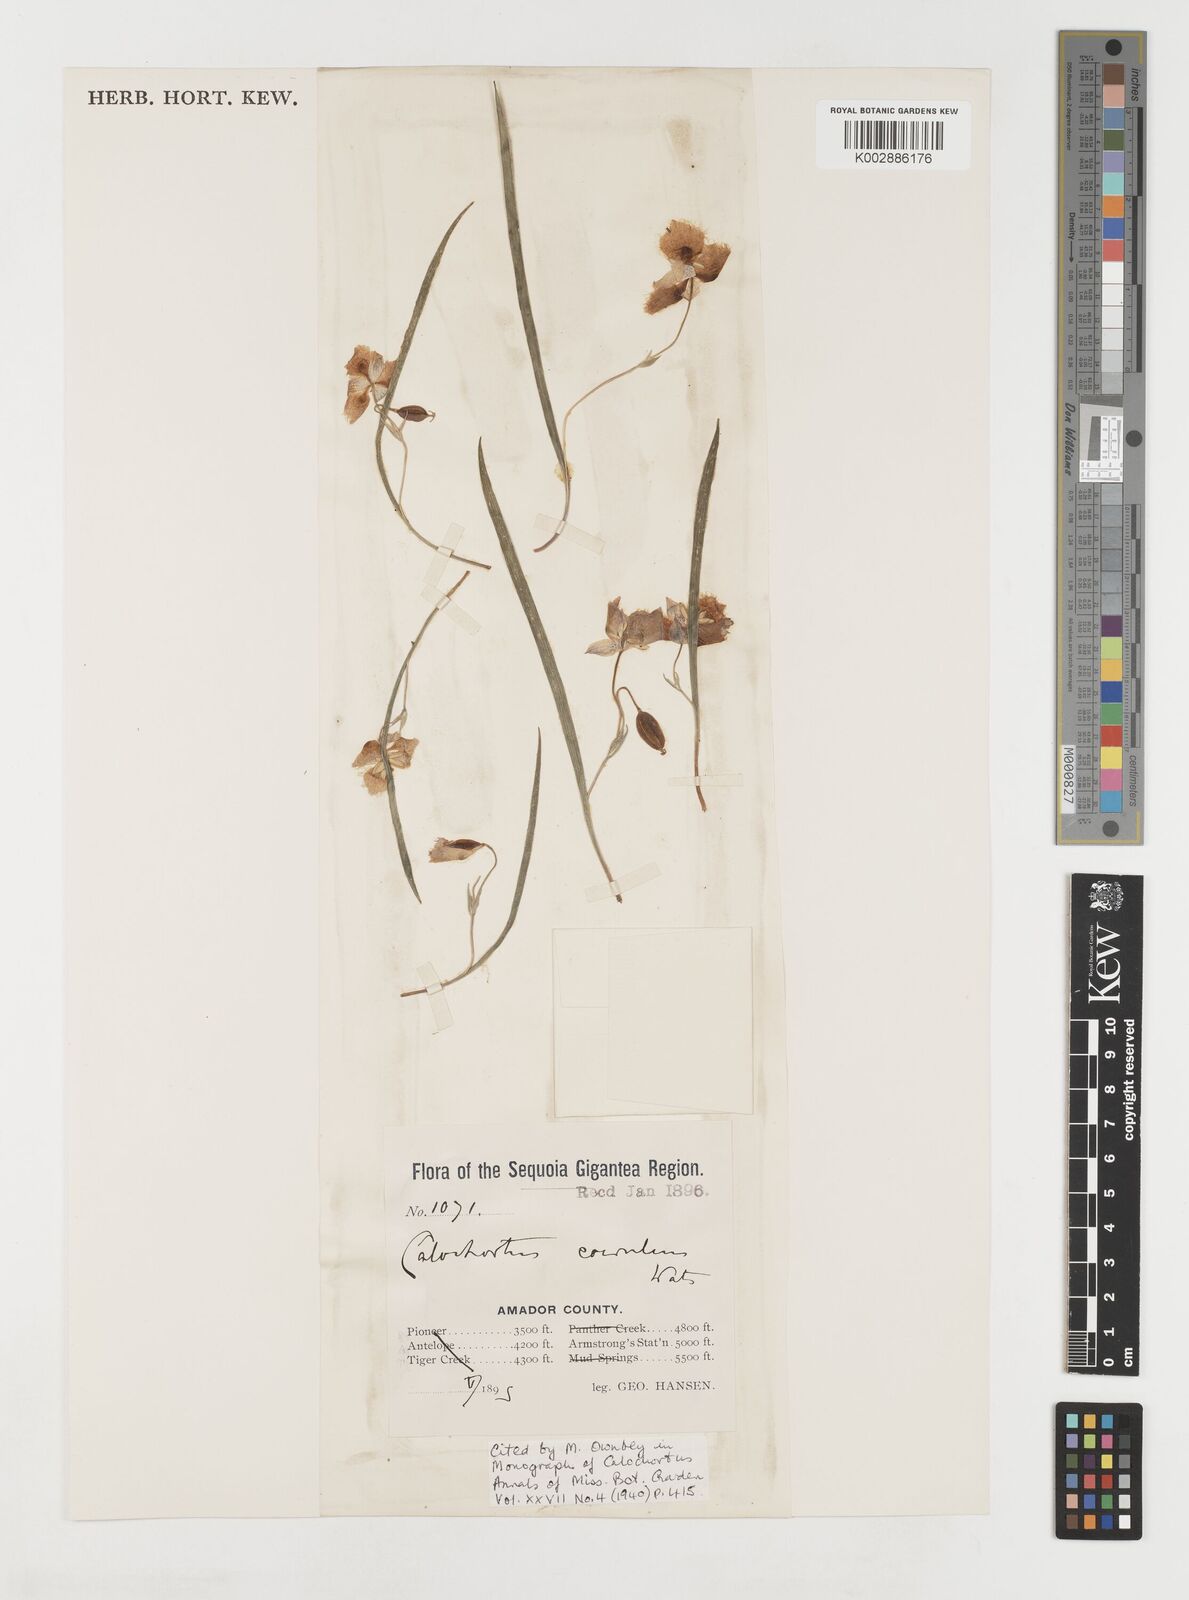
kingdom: Plantae
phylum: Tracheophyta
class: Liliopsida
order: Liliales
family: Liliaceae
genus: Calochortus
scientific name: Calochortus coeruleus
